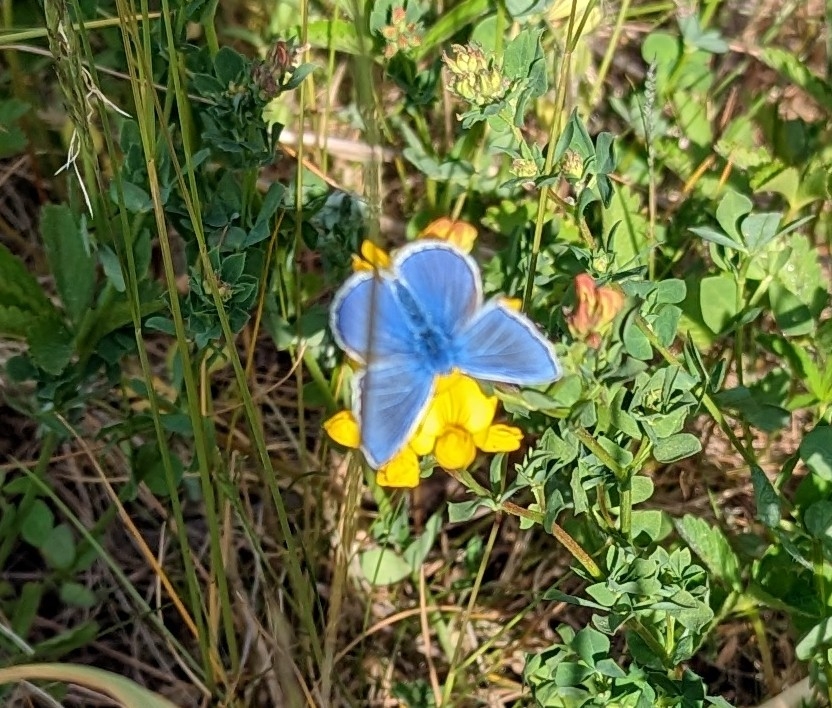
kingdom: Animalia
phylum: Arthropoda
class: Insecta
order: Lepidoptera
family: Lycaenidae
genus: Polyommatus
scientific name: Polyommatus icarus
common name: Almindelig blåfugl
